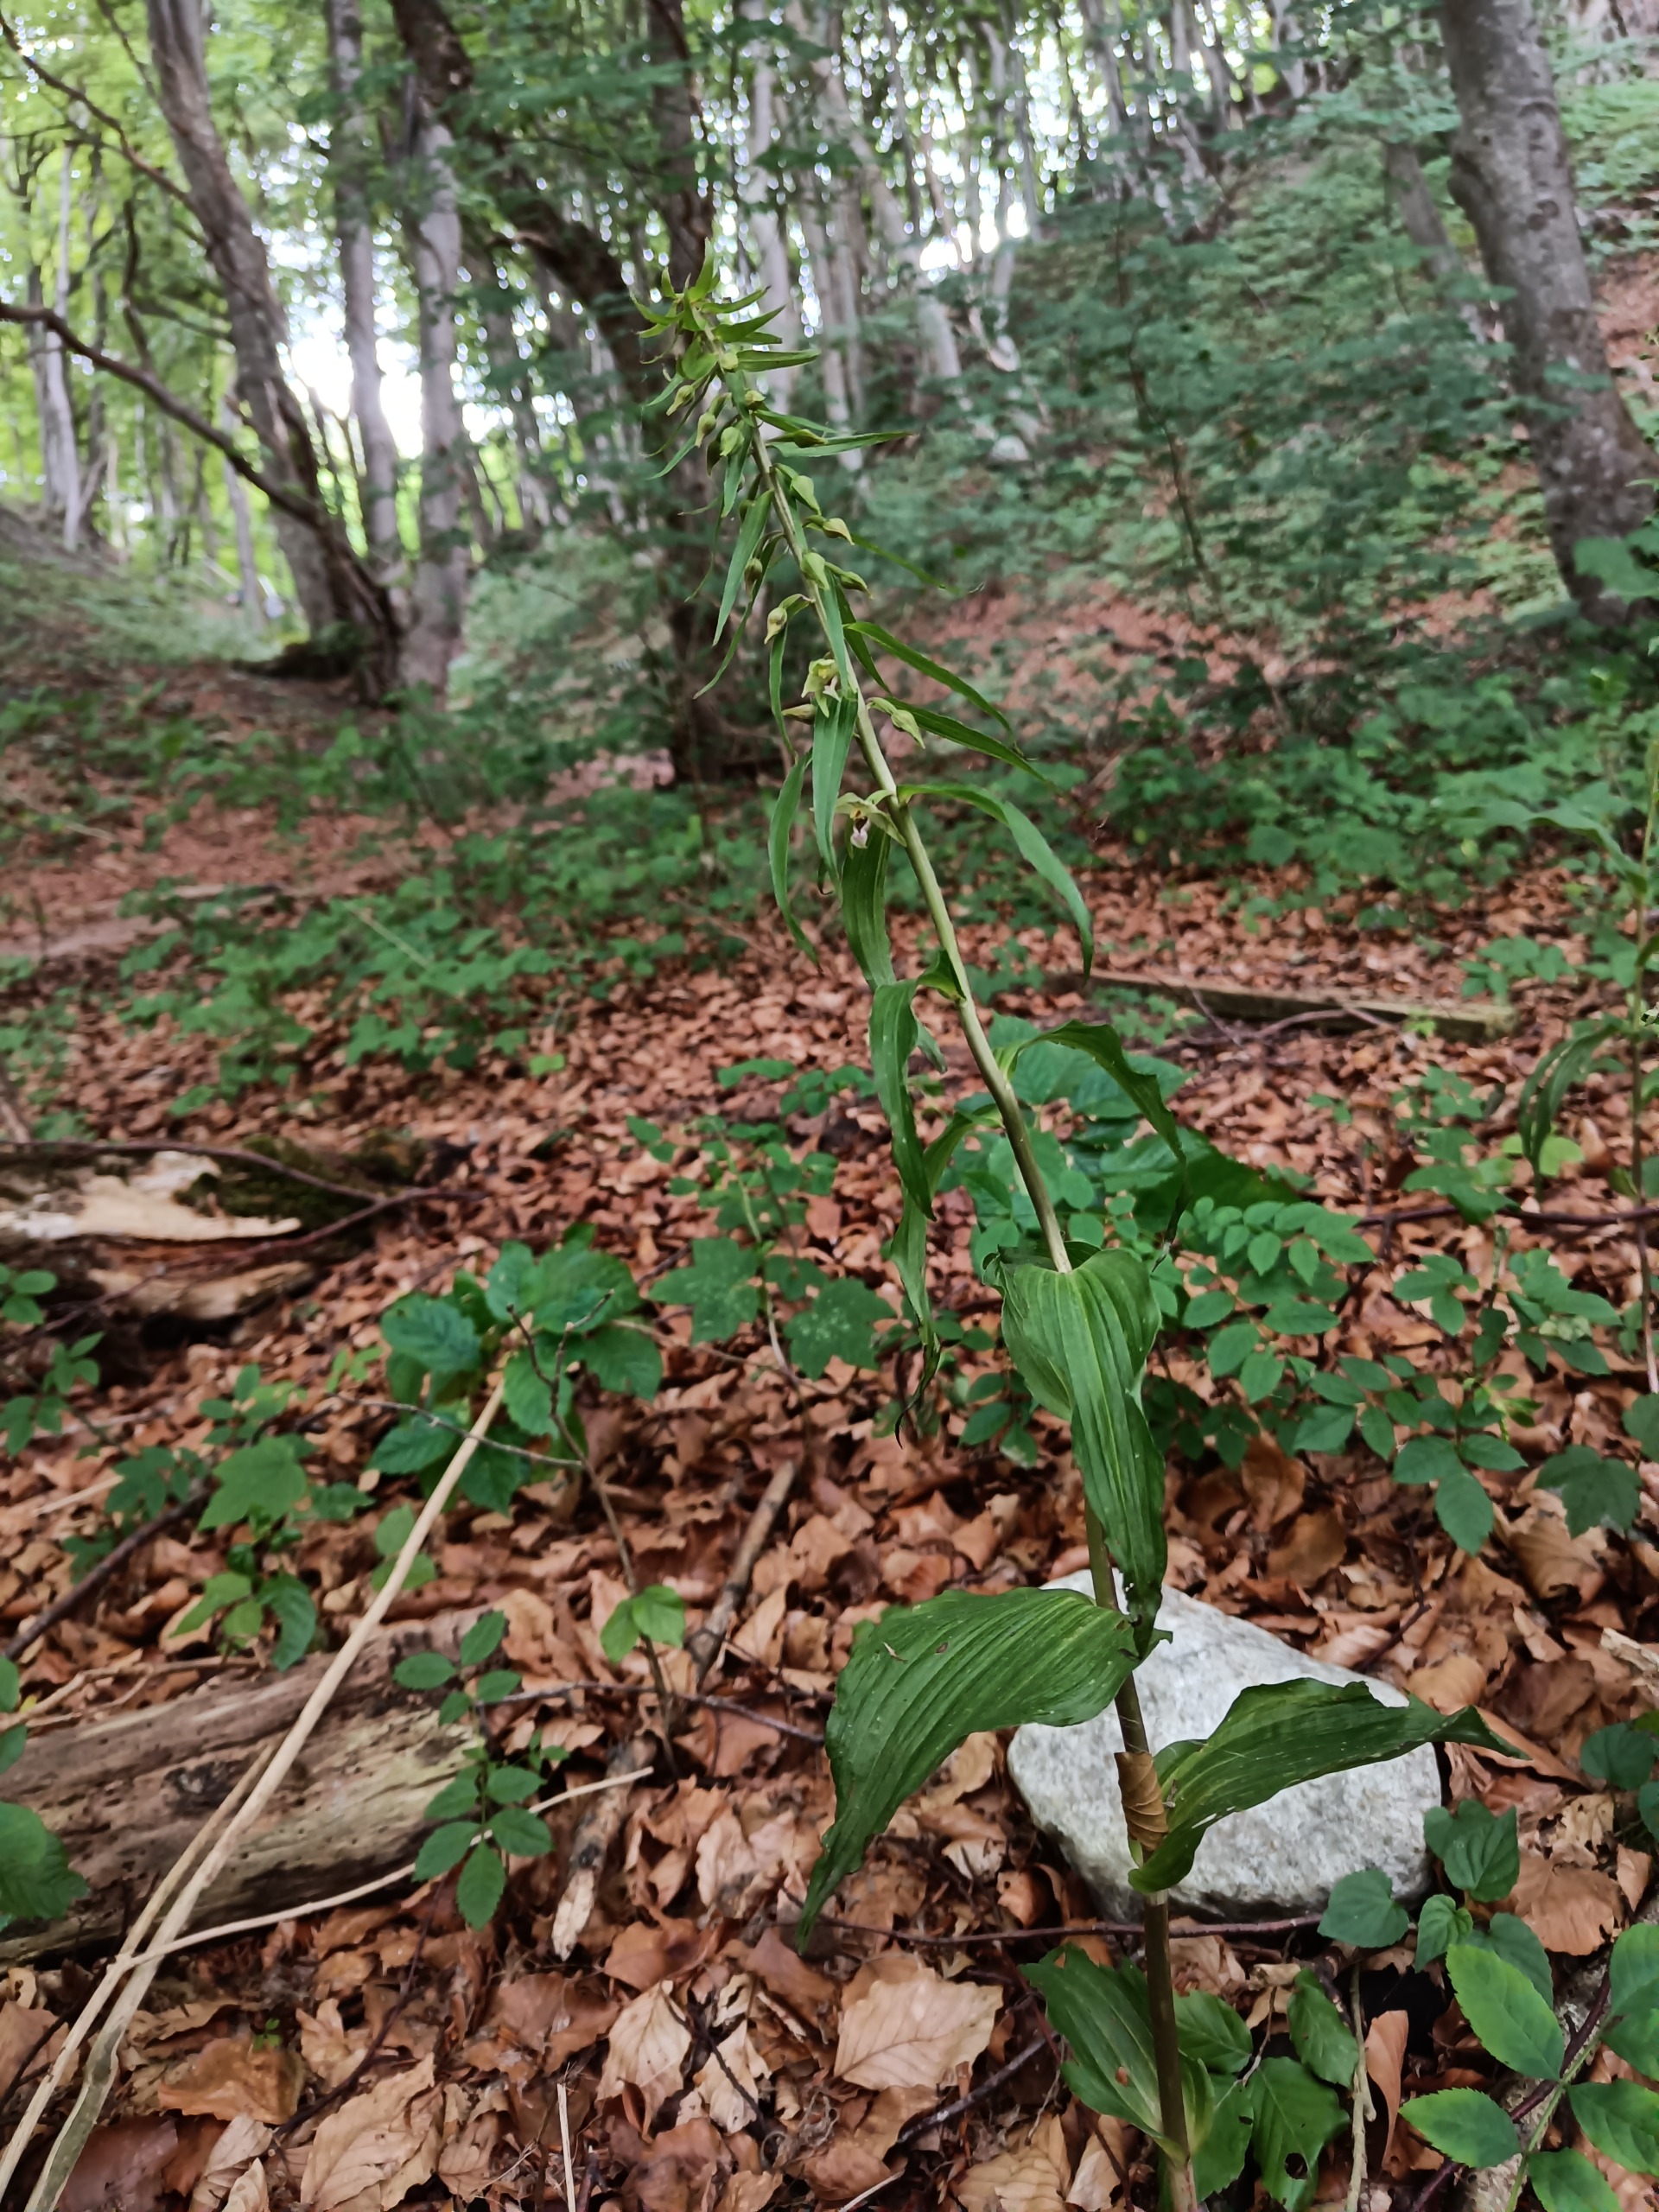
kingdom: Plantae
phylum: Tracheophyta
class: Liliopsida
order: Asparagales
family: Orchidaceae
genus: Epipactis
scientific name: Epipactis leptochila
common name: Storblomstret hullæbe
